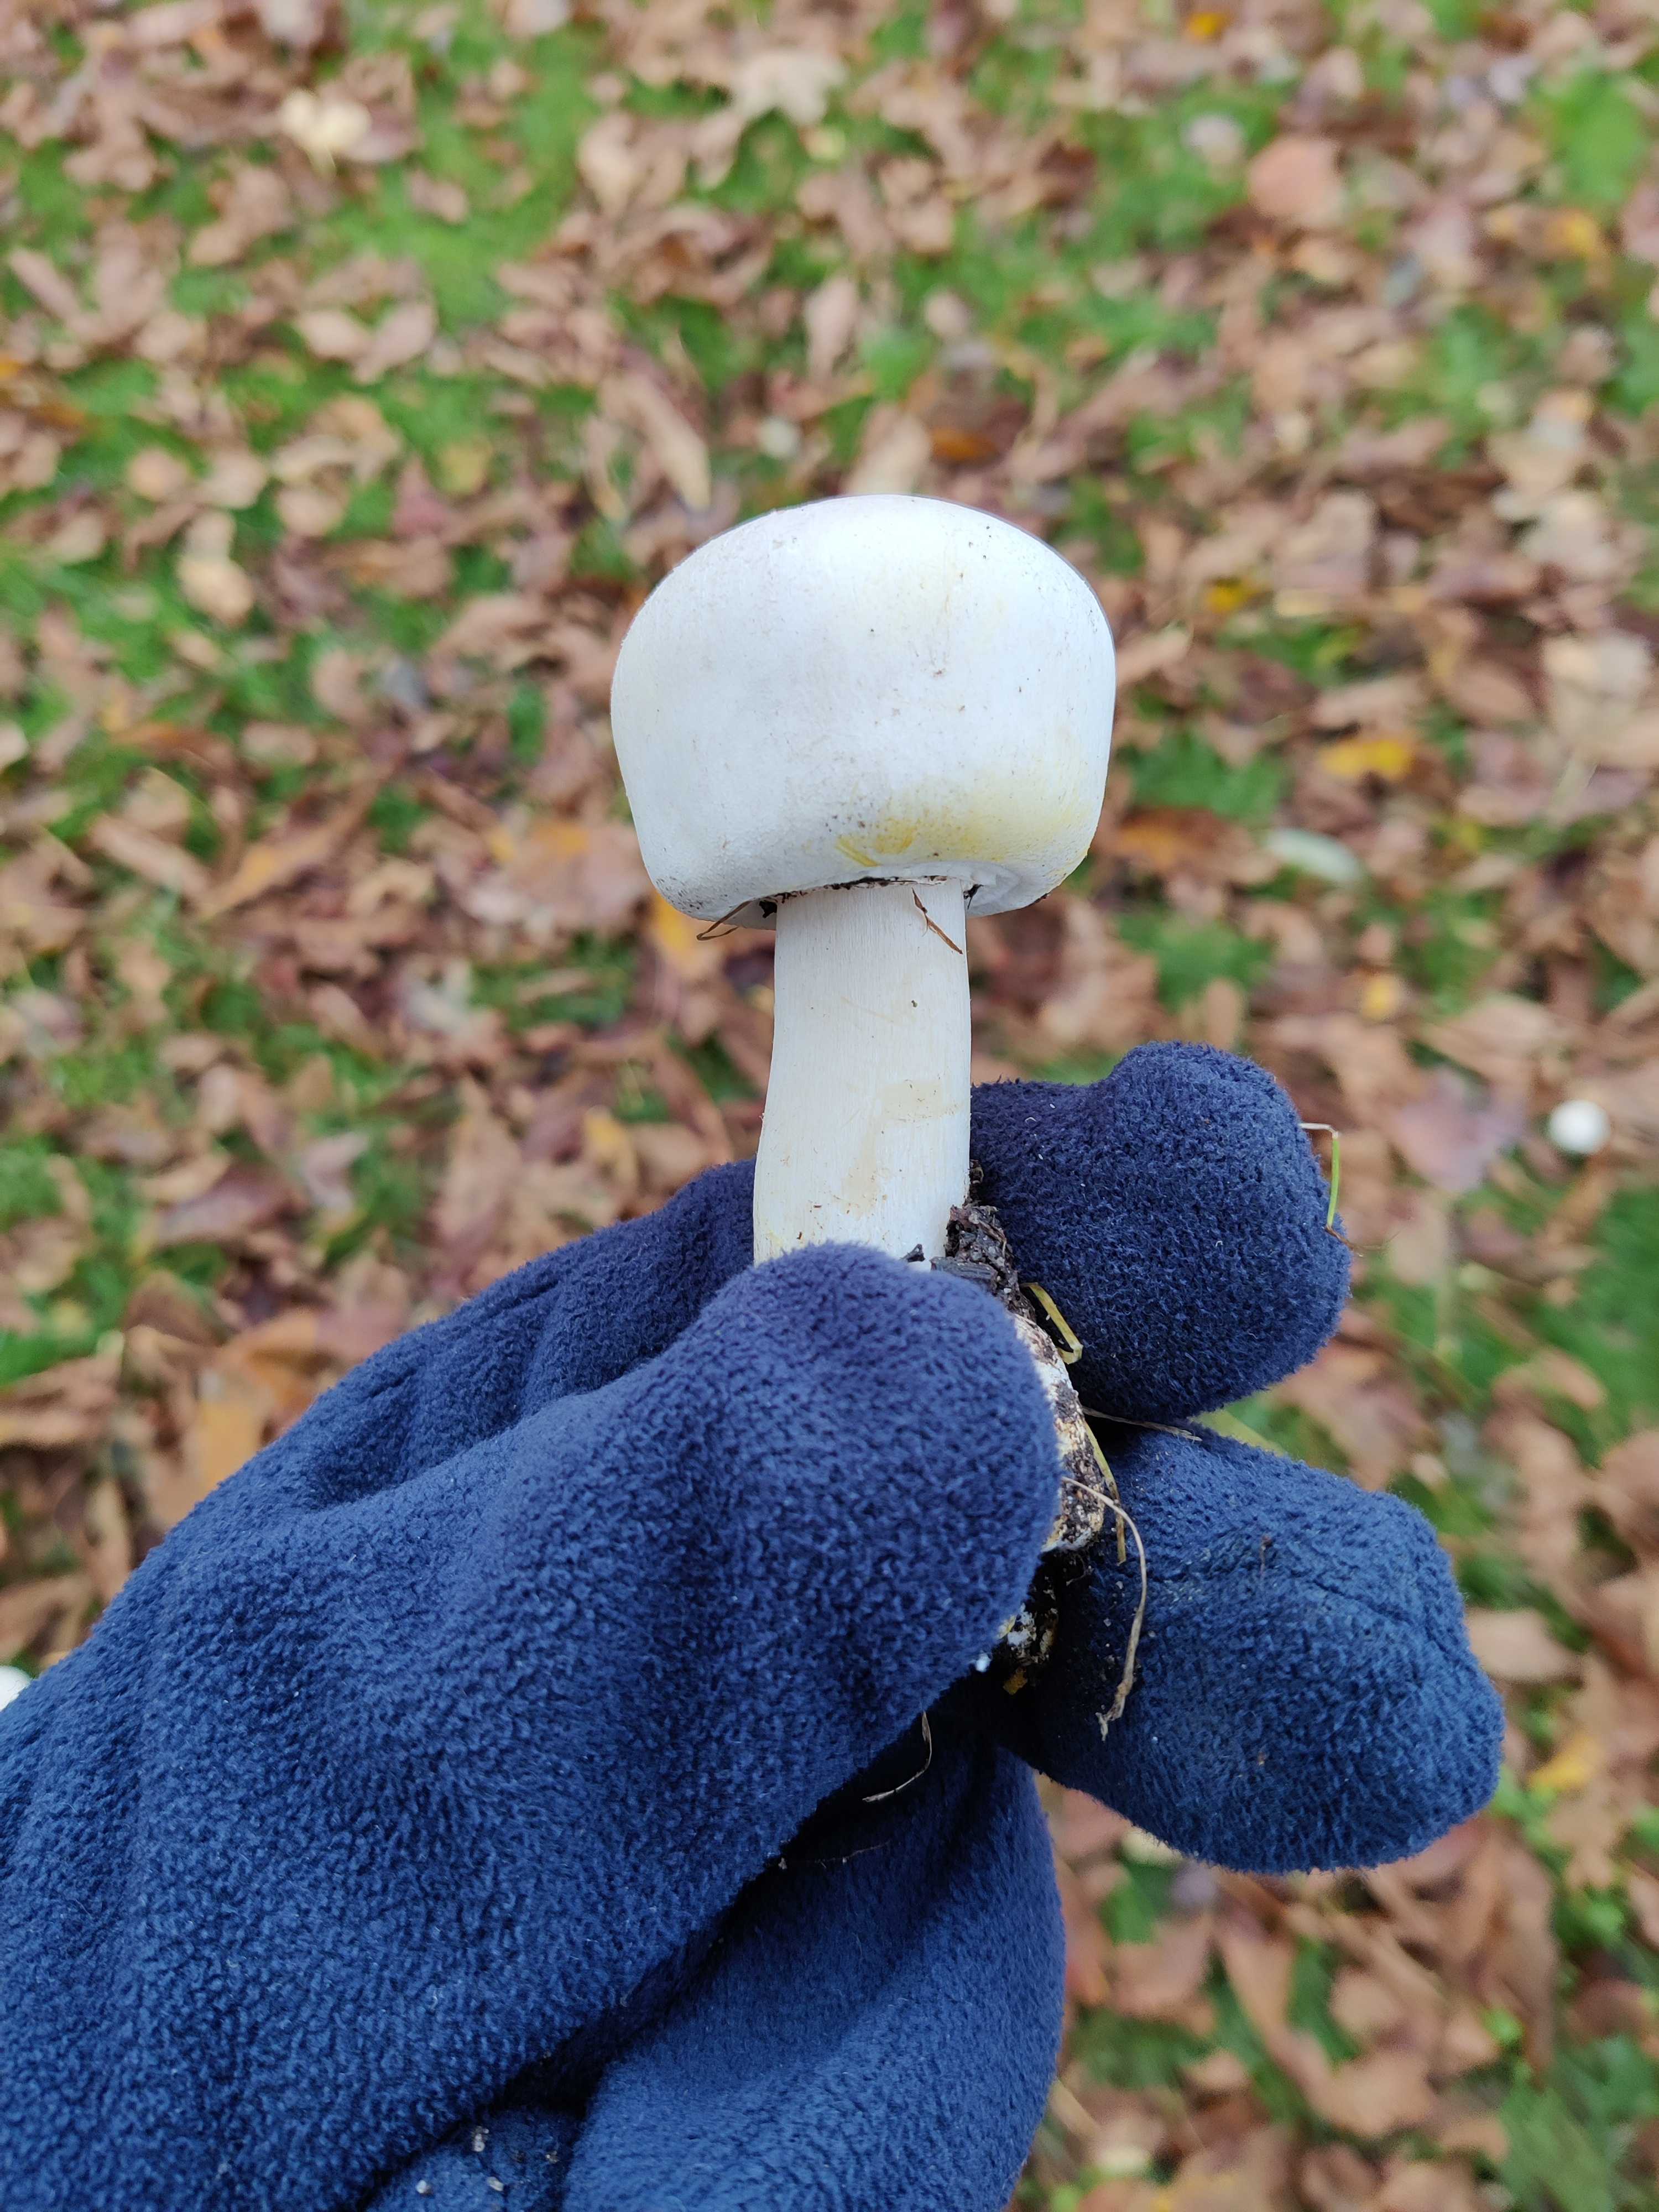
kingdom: Fungi
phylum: Basidiomycota
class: Agaricomycetes
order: Agaricales
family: Agaricaceae
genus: Agaricus
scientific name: Agaricus xanthodermus
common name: karbol-champignon
